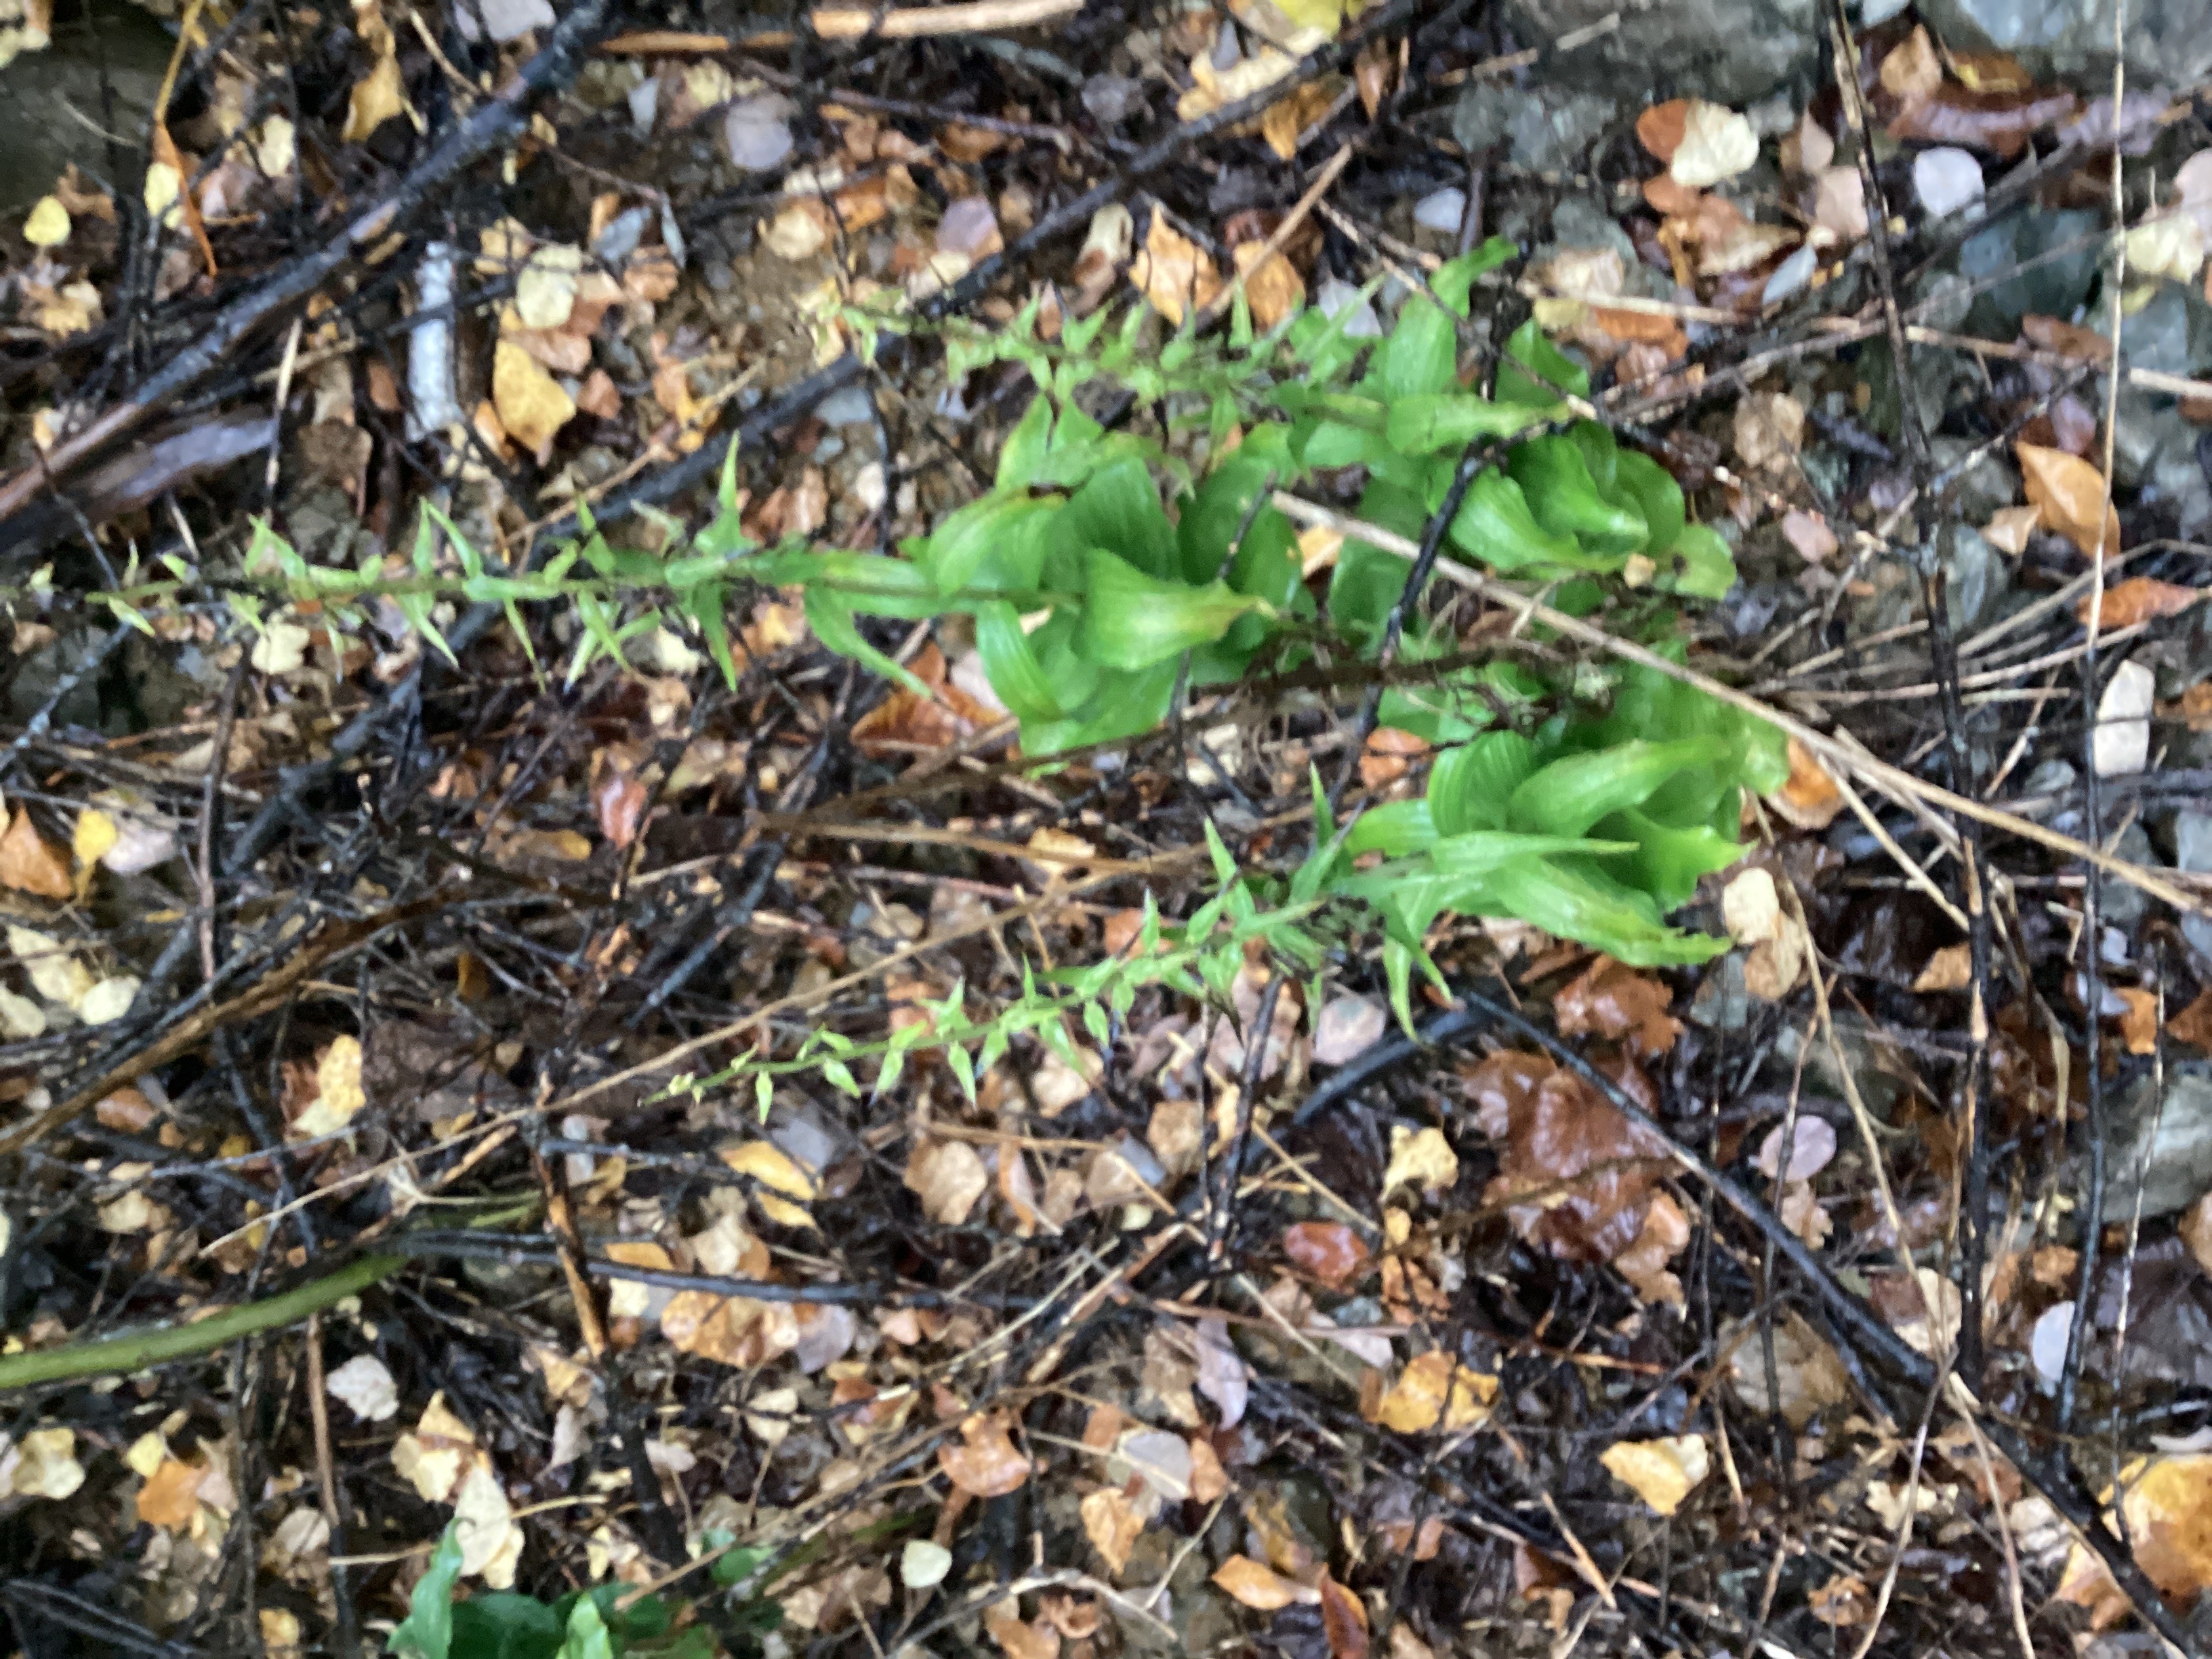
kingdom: Plantae
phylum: Tracheophyta
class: Liliopsida
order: Asparagales
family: Orchidaceae
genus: Epipactis
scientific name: Epipactis helleborine
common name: skogbreiflangre
